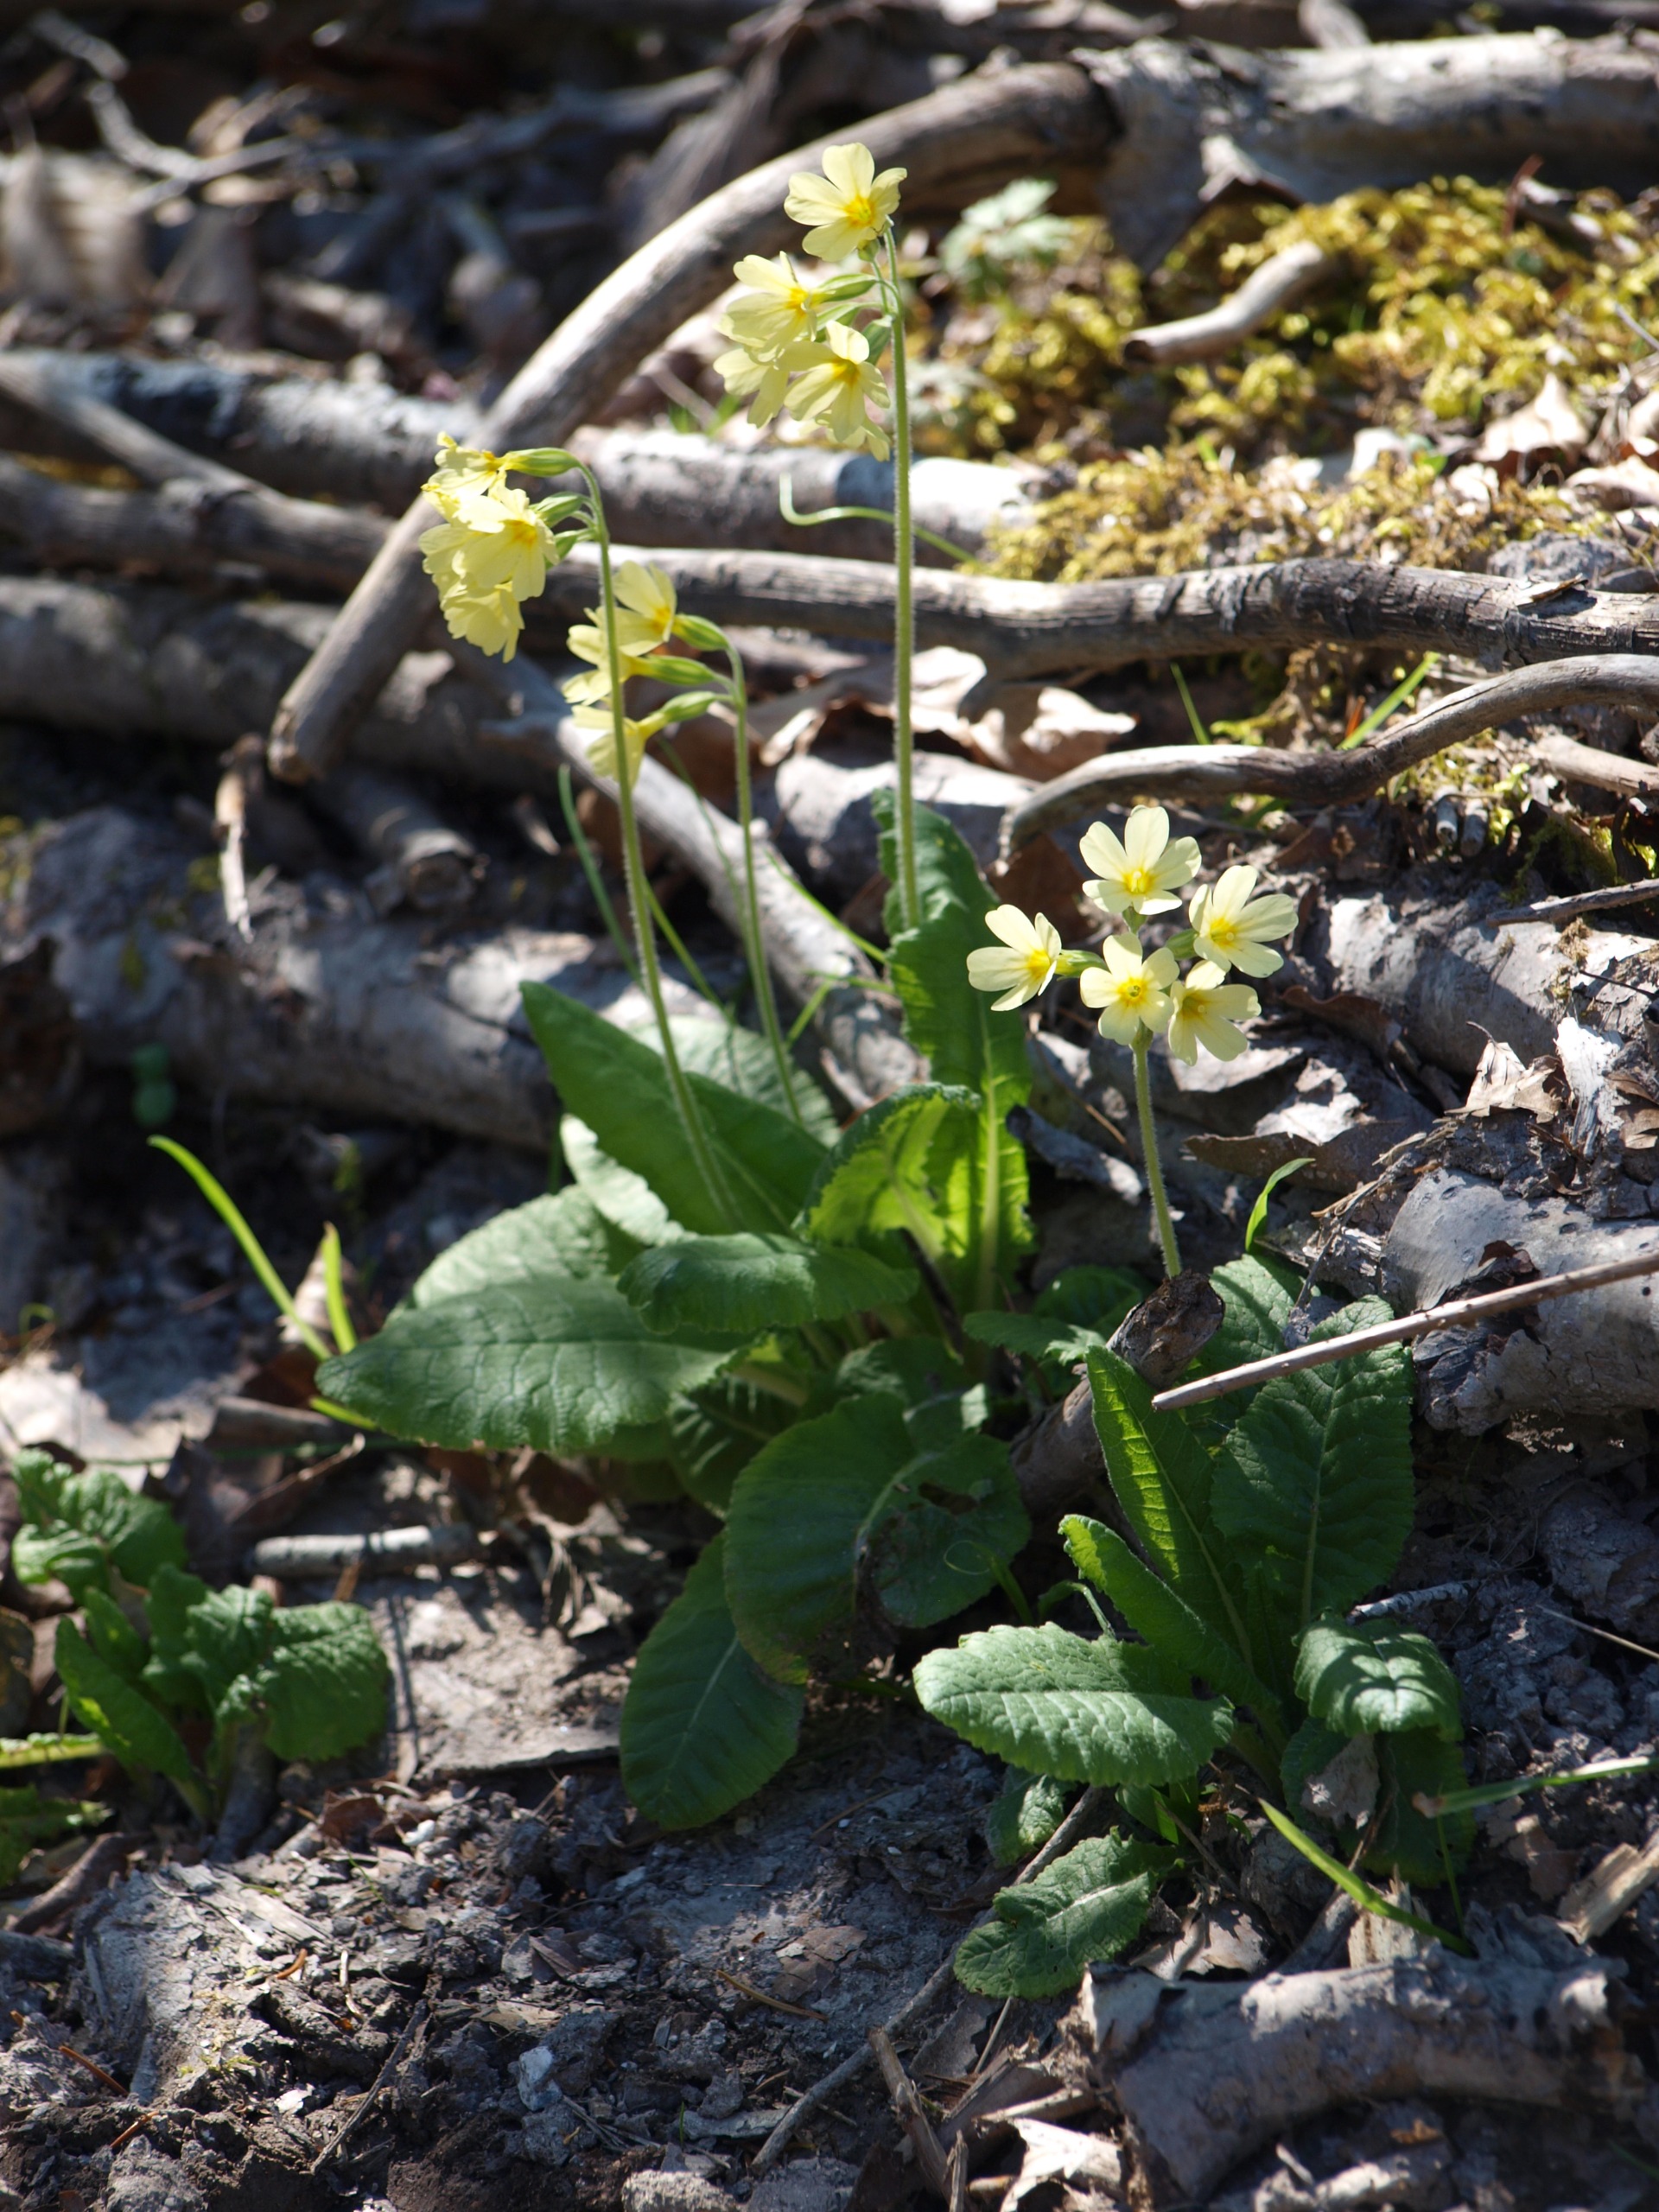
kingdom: Plantae
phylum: Tracheophyta
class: Magnoliopsida
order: Ericales
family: Primulaceae
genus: Primula
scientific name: Primula elatior
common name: Fladkravet kodriver
